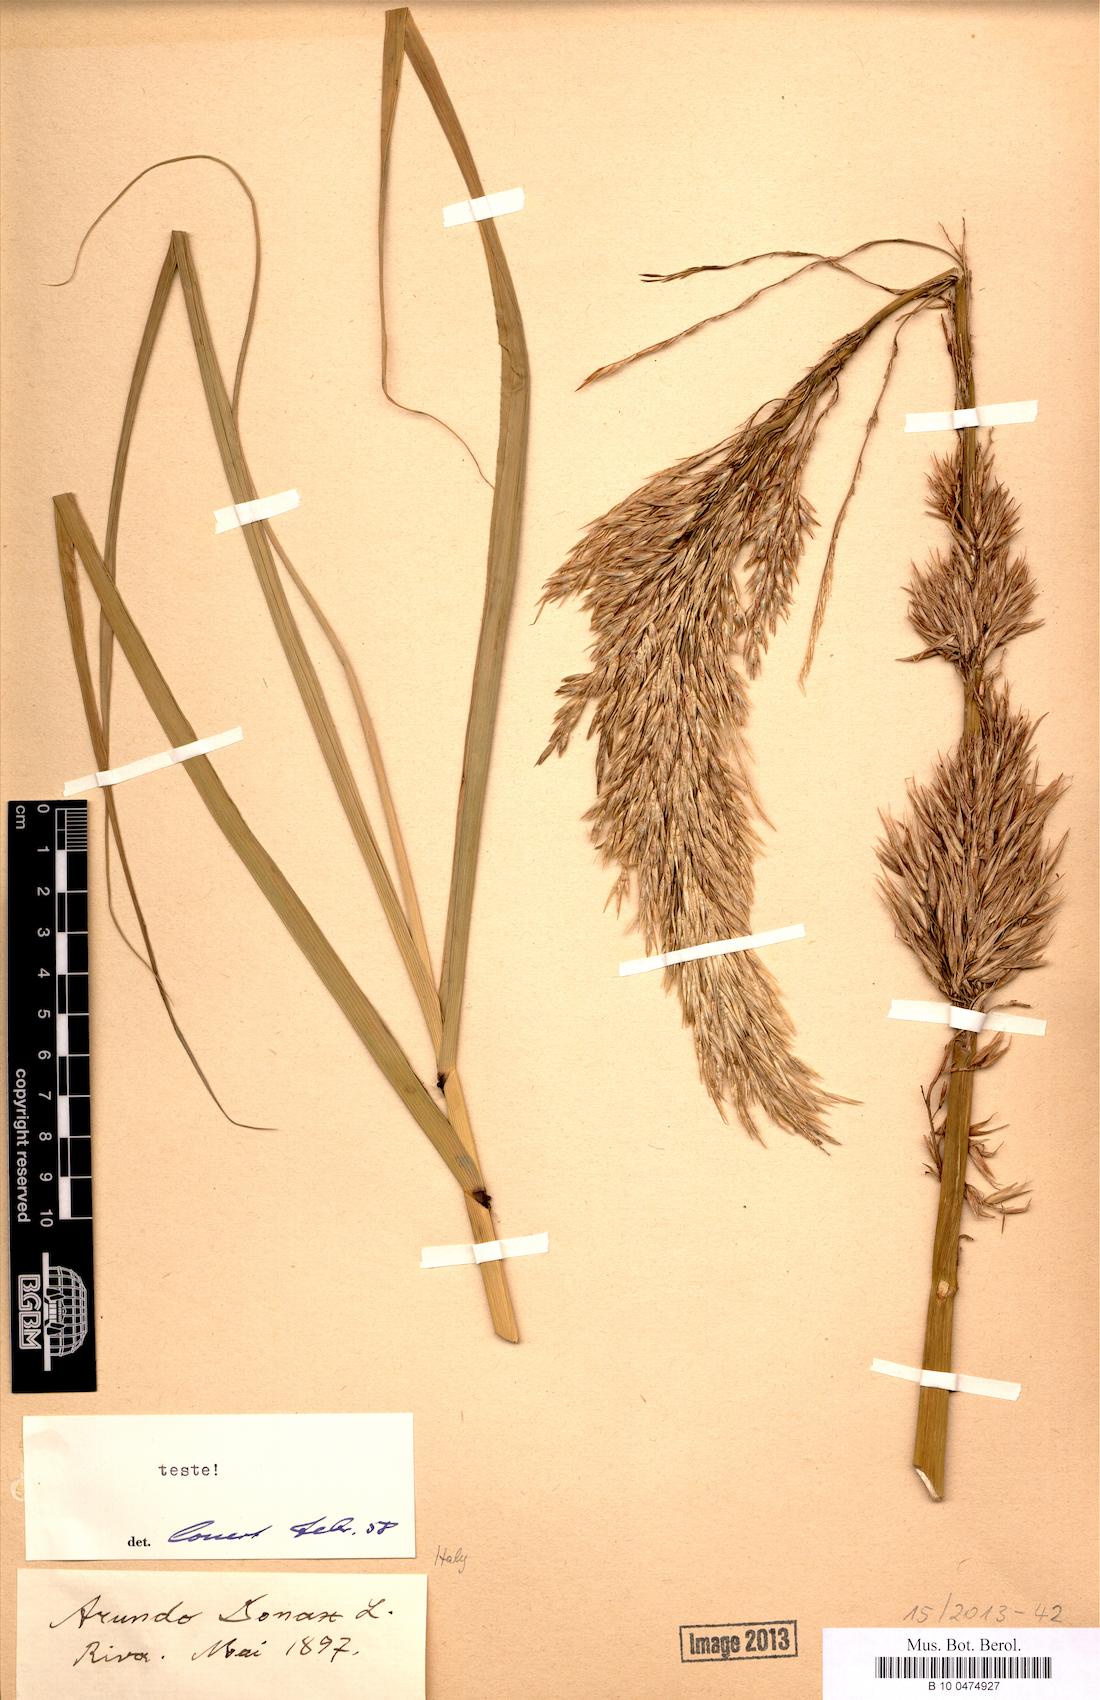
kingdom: Plantae
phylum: Tracheophyta
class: Liliopsida
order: Poales
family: Poaceae
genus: Arundo
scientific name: Arundo donax
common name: Giant reed
